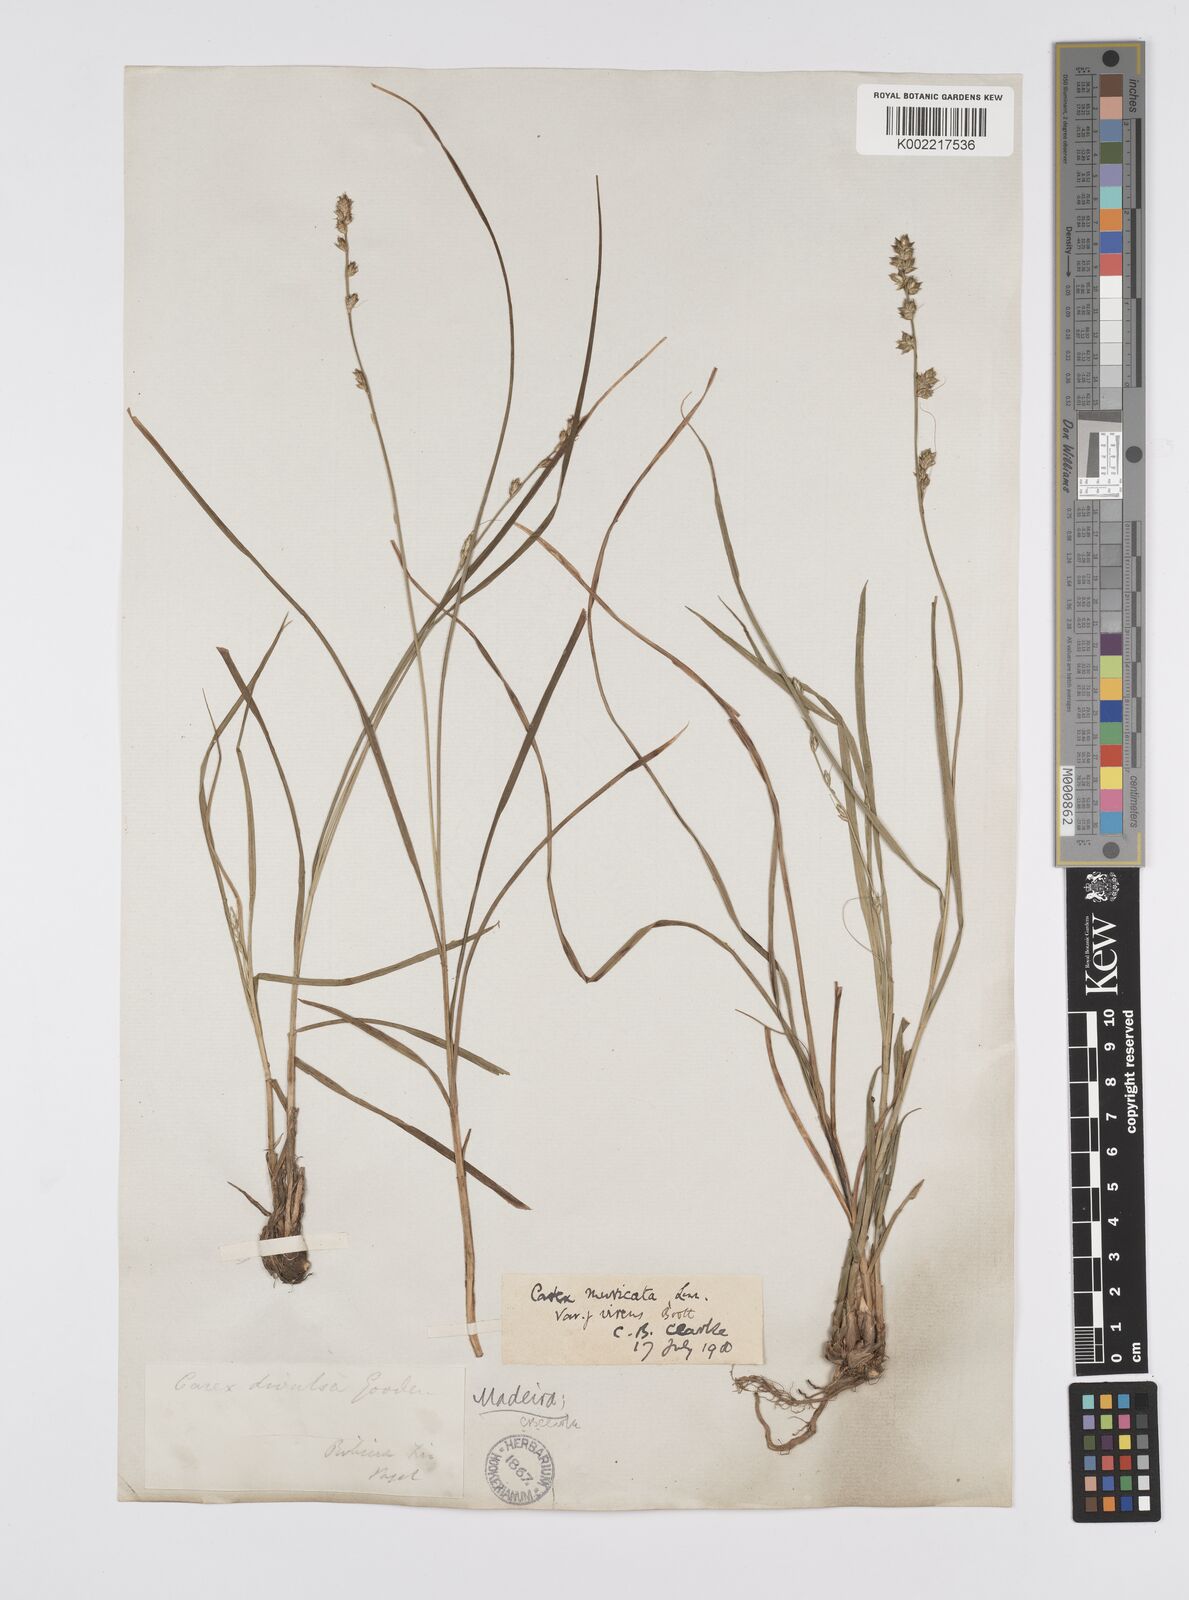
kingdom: Plantae
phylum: Tracheophyta
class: Liliopsida
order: Poales
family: Cyperaceae
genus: Carex
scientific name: Carex divulsa
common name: Grassland sedge
